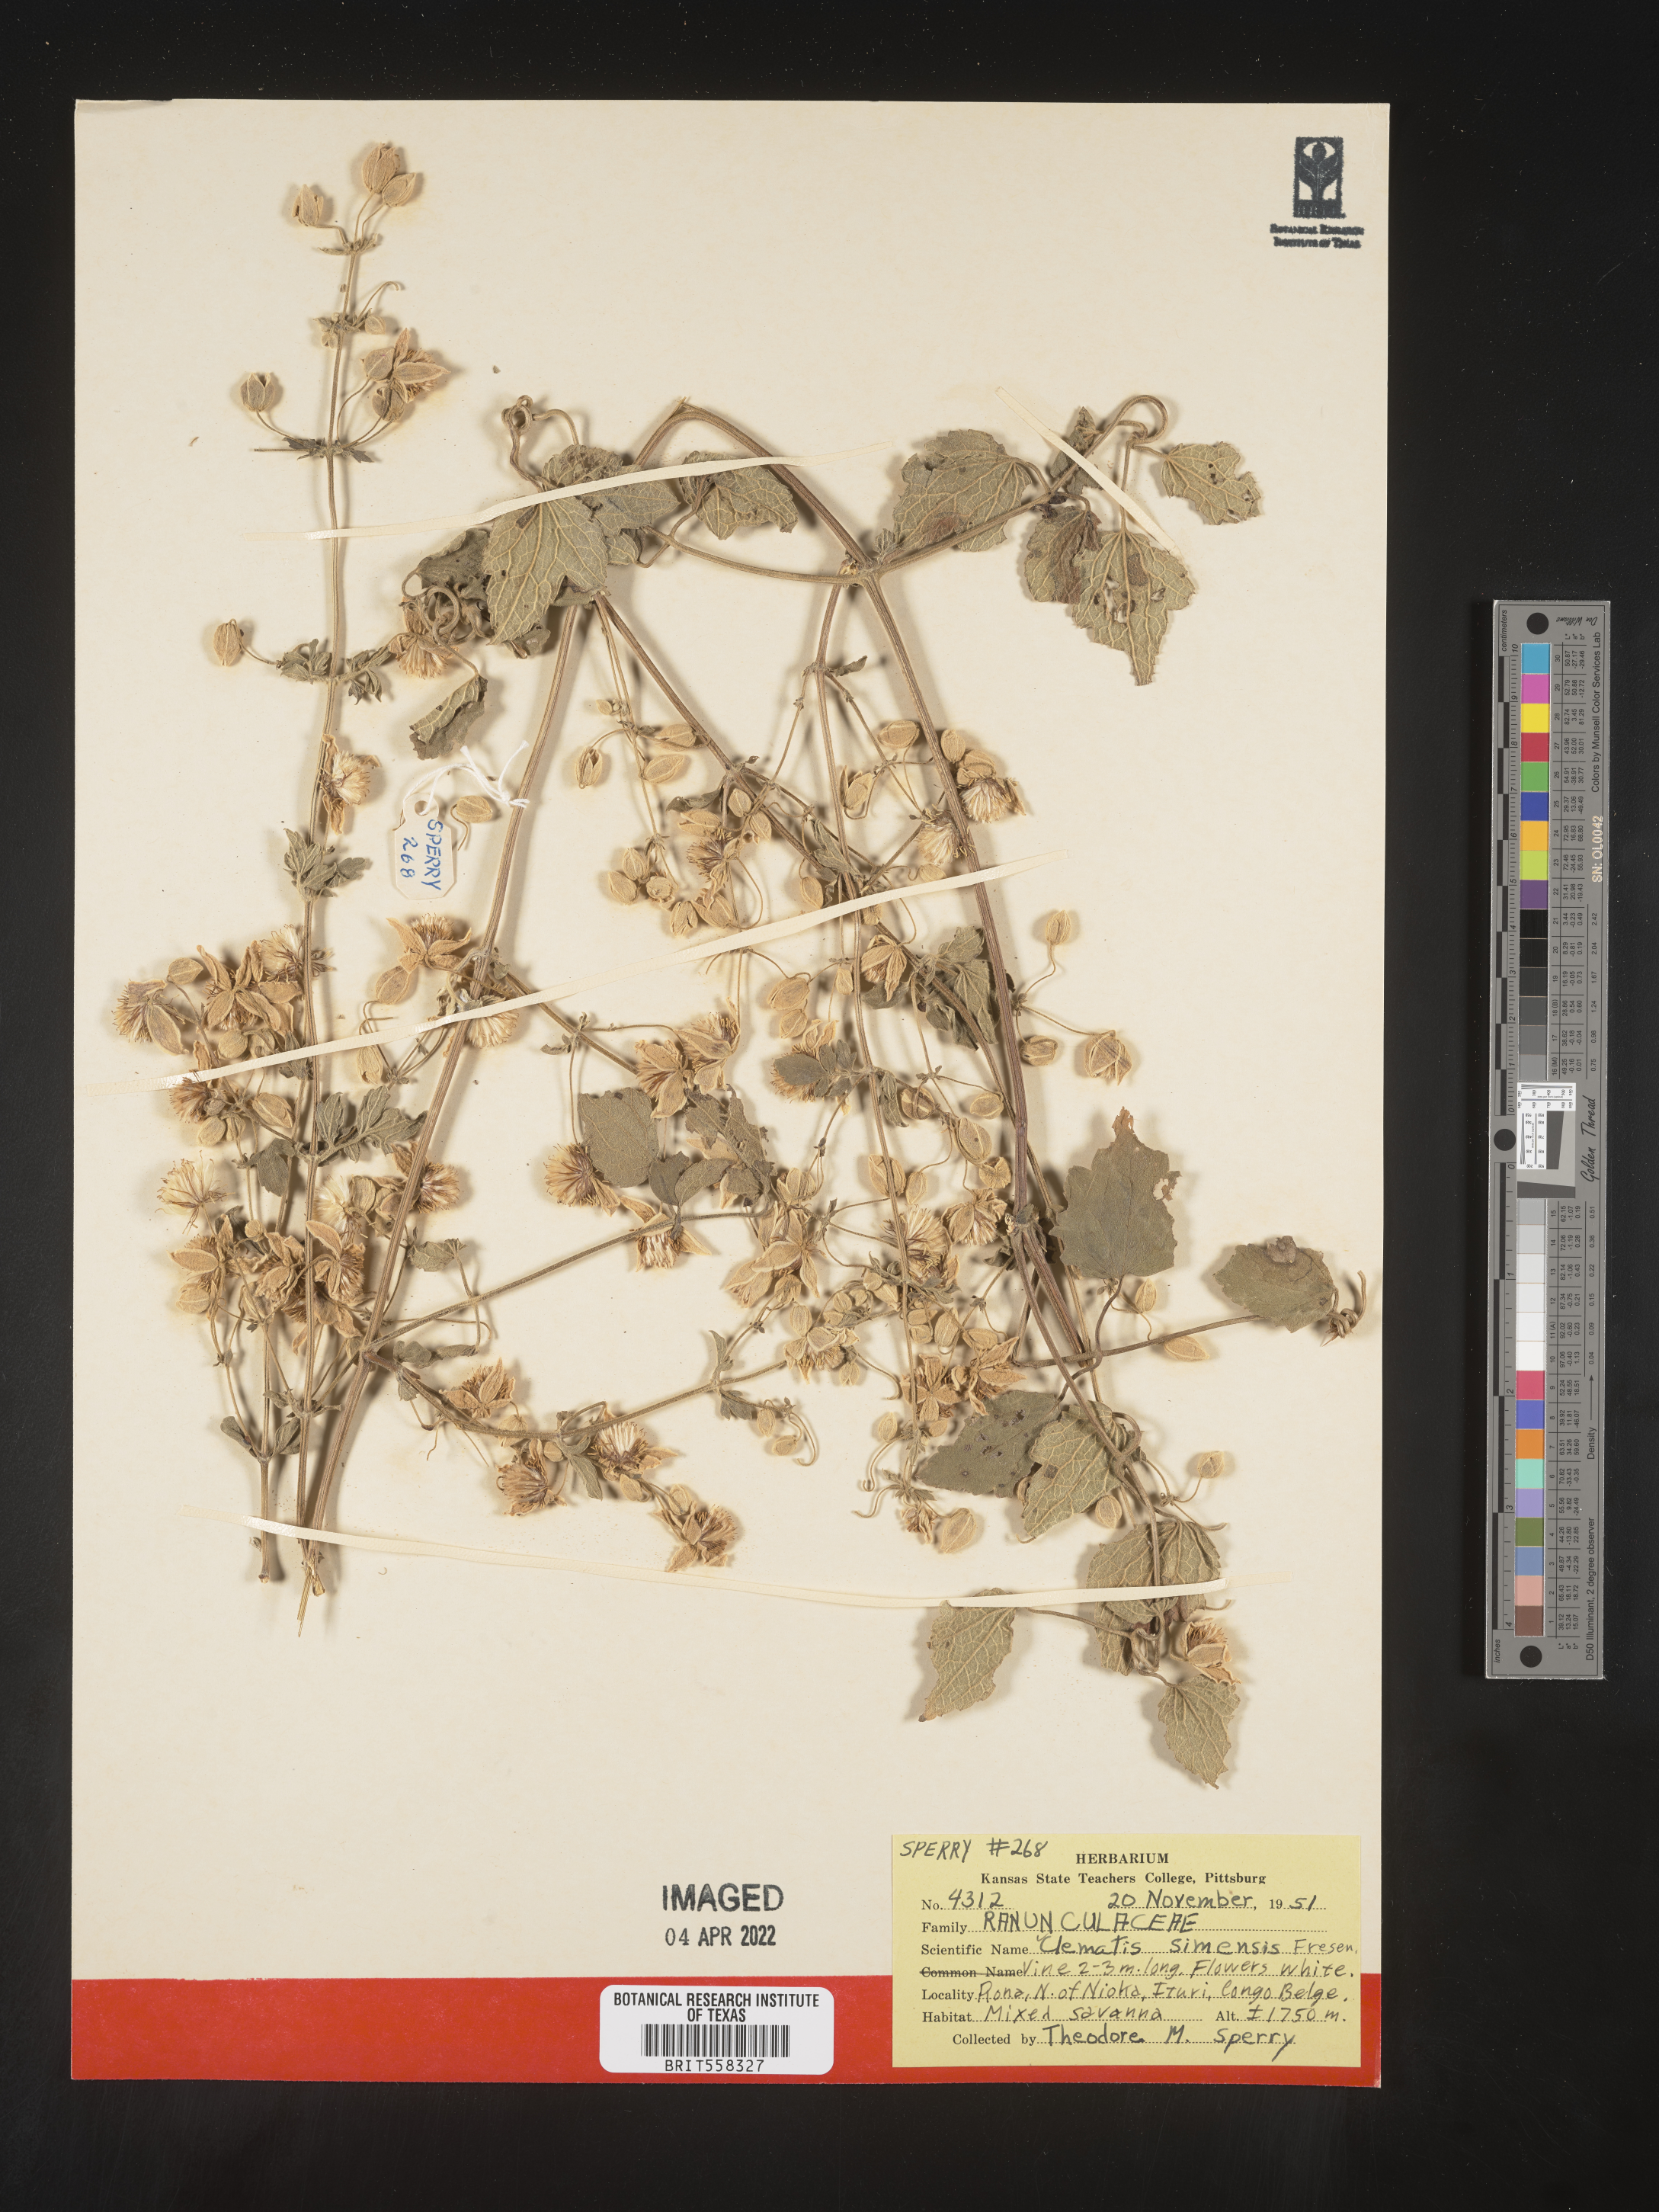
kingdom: Plantae
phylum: Tracheophyta
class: Magnoliopsida
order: Ranunculales
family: Ranunculaceae
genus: Clematis
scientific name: Clematis simensis
